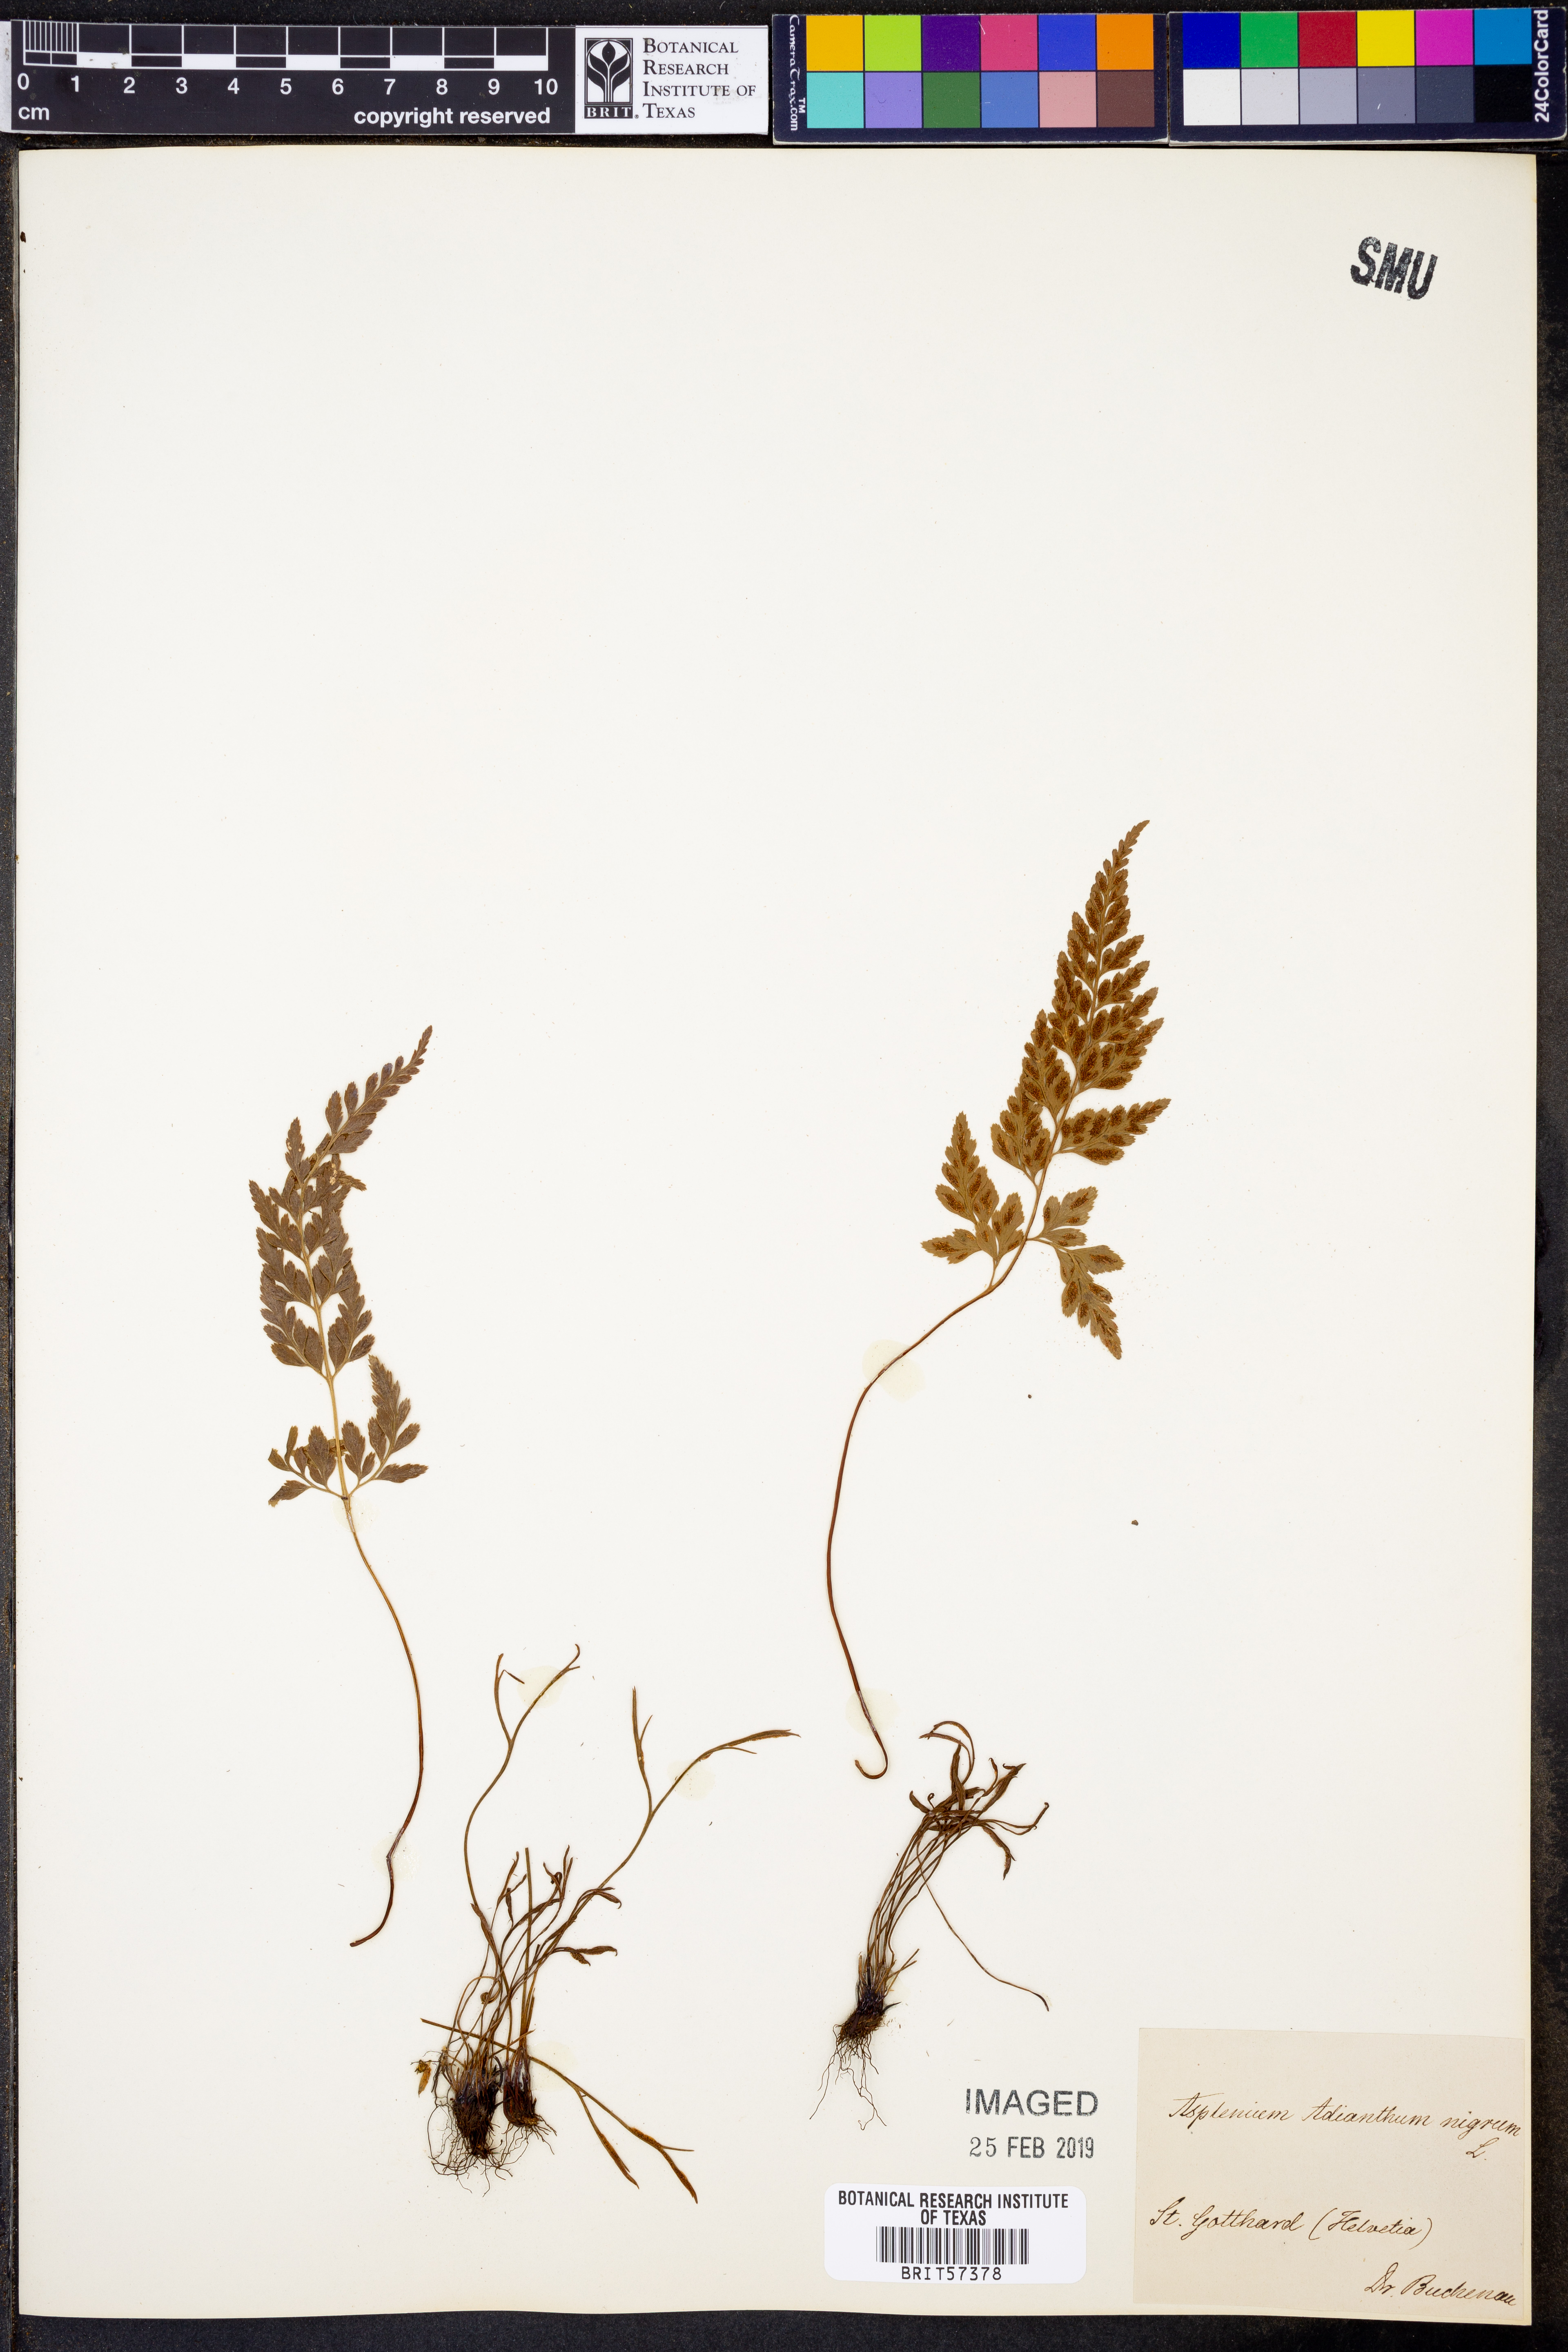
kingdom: Plantae
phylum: Tracheophyta
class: Polypodiopsida
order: Polypodiales
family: Aspleniaceae
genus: Asplenium
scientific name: Asplenium adiantum-nigrum
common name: Black spleenwort
